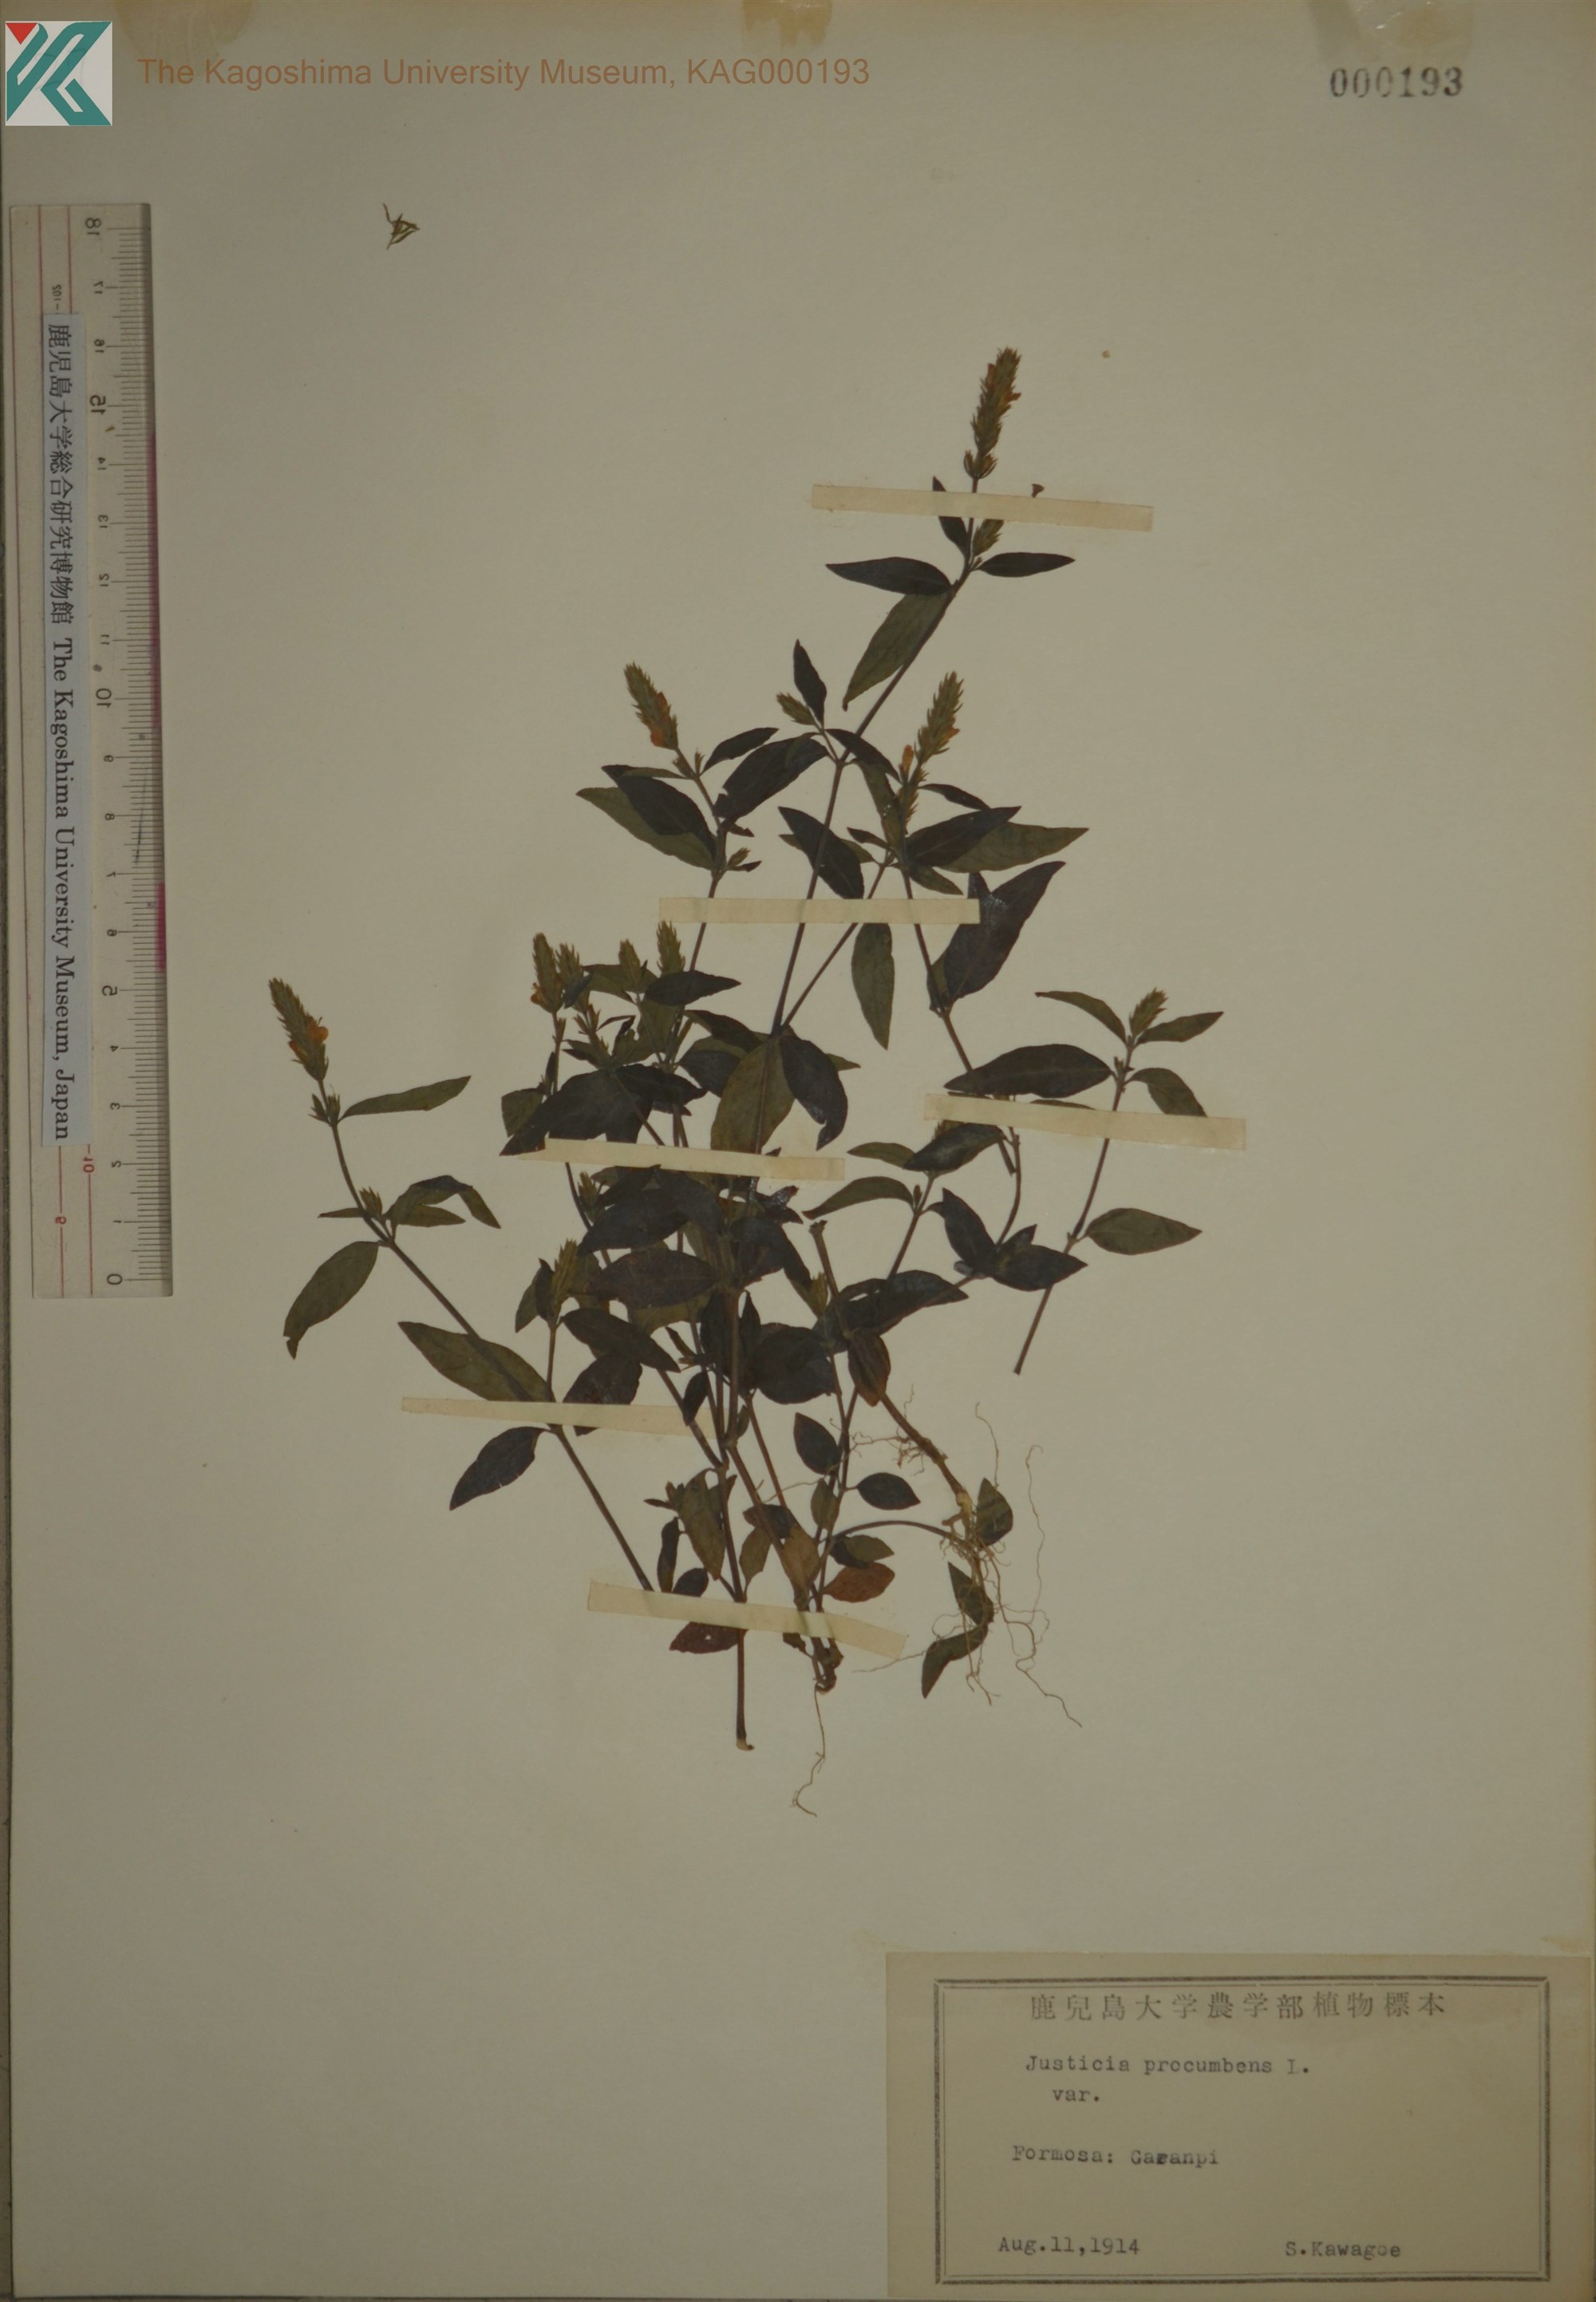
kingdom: Plantae
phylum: Tracheophyta
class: Magnoliopsida
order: Lamiales
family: Acanthaceae
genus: Rostellularia
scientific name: Rostellularia procumbens
